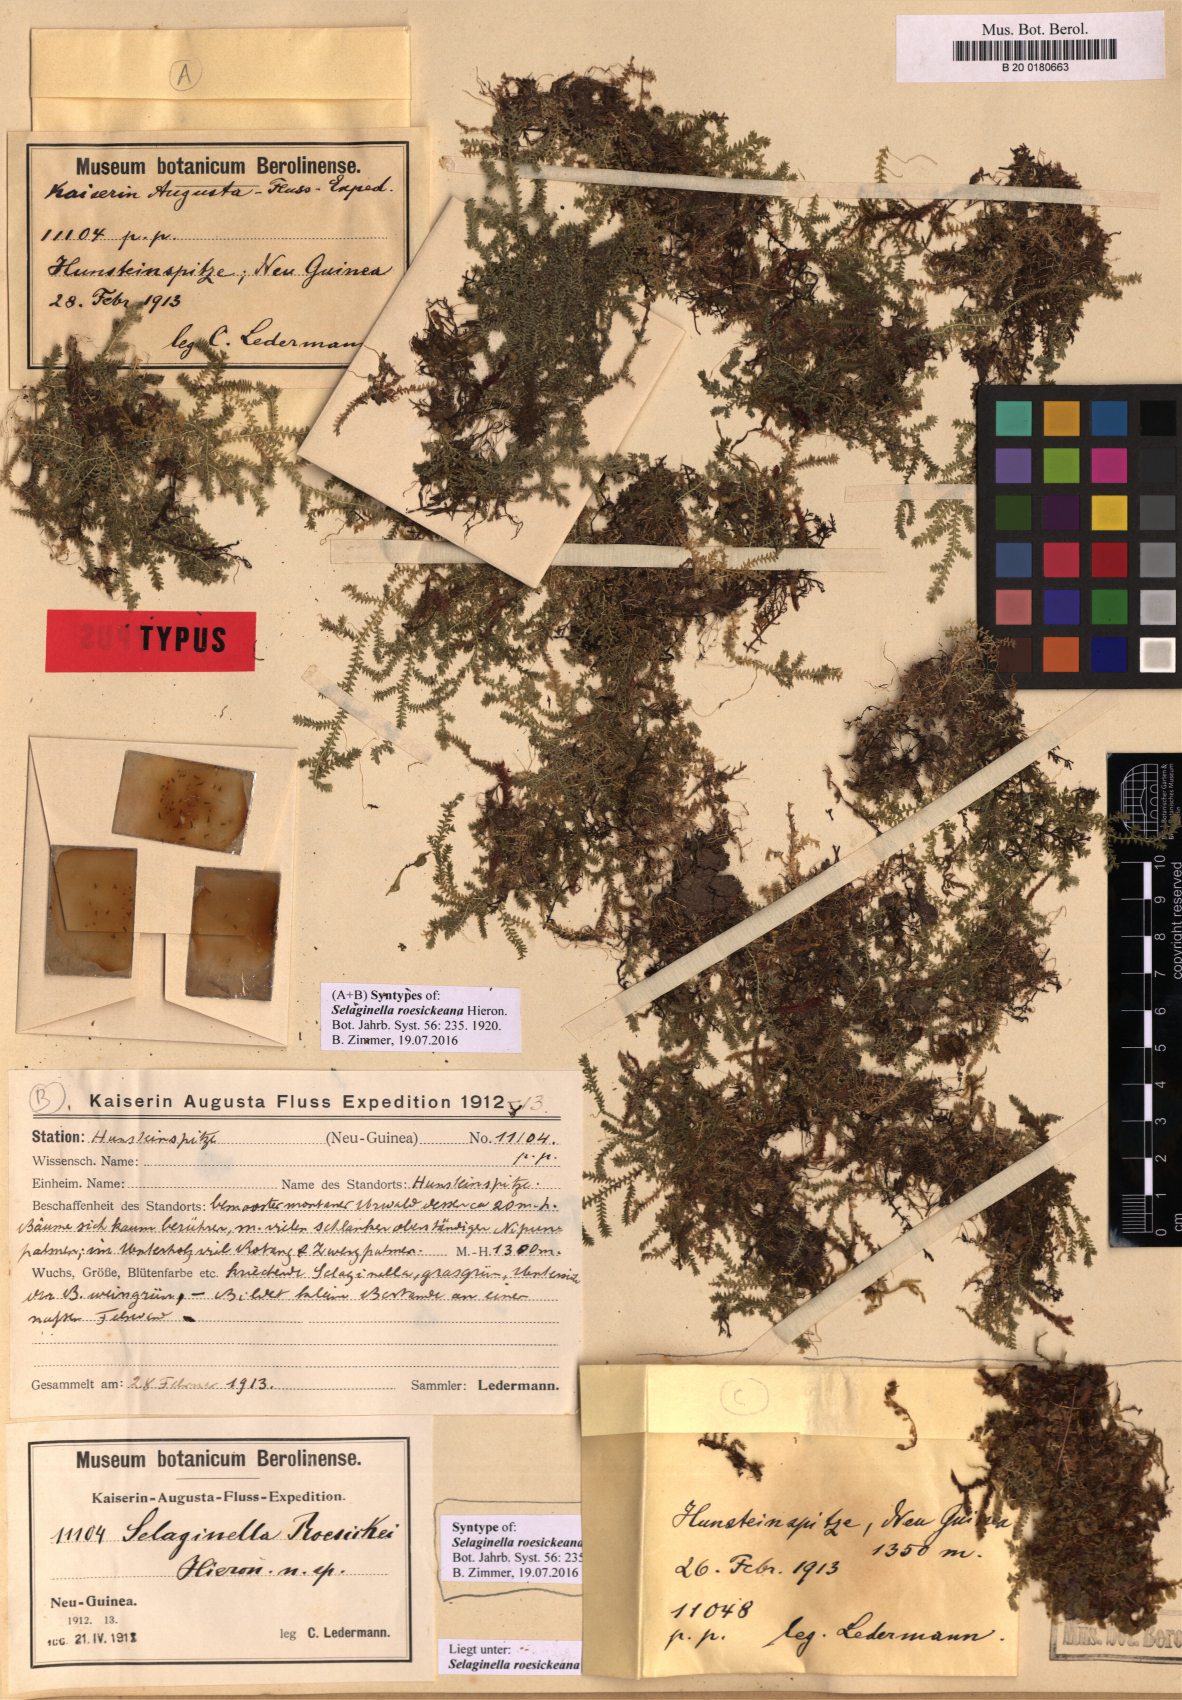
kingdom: Plantae
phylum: Tracheophyta
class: Lycopodiopsida
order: Selaginellales
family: Selaginellaceae
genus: Selaginella
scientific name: Selaginella roesickeana
